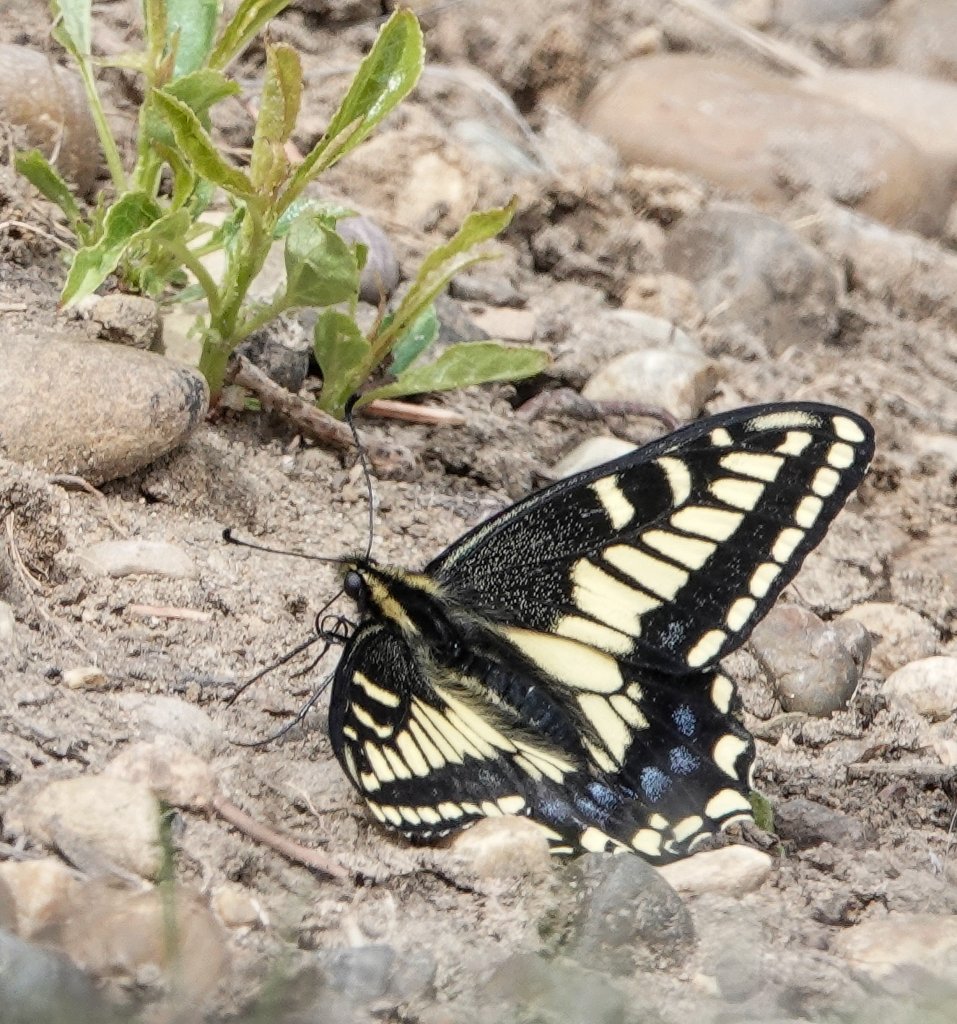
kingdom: Animalia
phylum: Arthropoda
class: Insecta
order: Lepidoptera
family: Papilionidae
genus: Papilio
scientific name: Papilio machaon
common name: Old World Swallowtail
